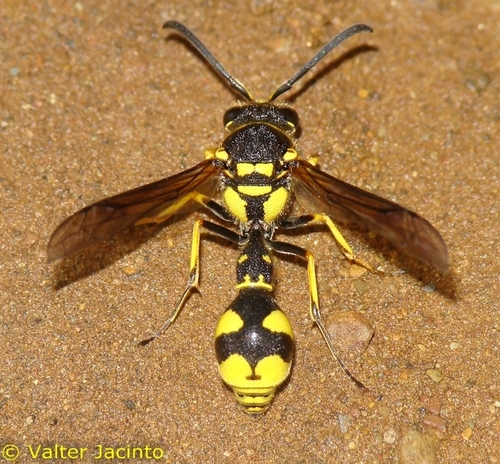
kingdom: Animalia
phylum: Arthropoda
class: Insecta
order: Hymenoptera
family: Vespidae
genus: Eumenes
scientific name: Eumenes subpomiformis
